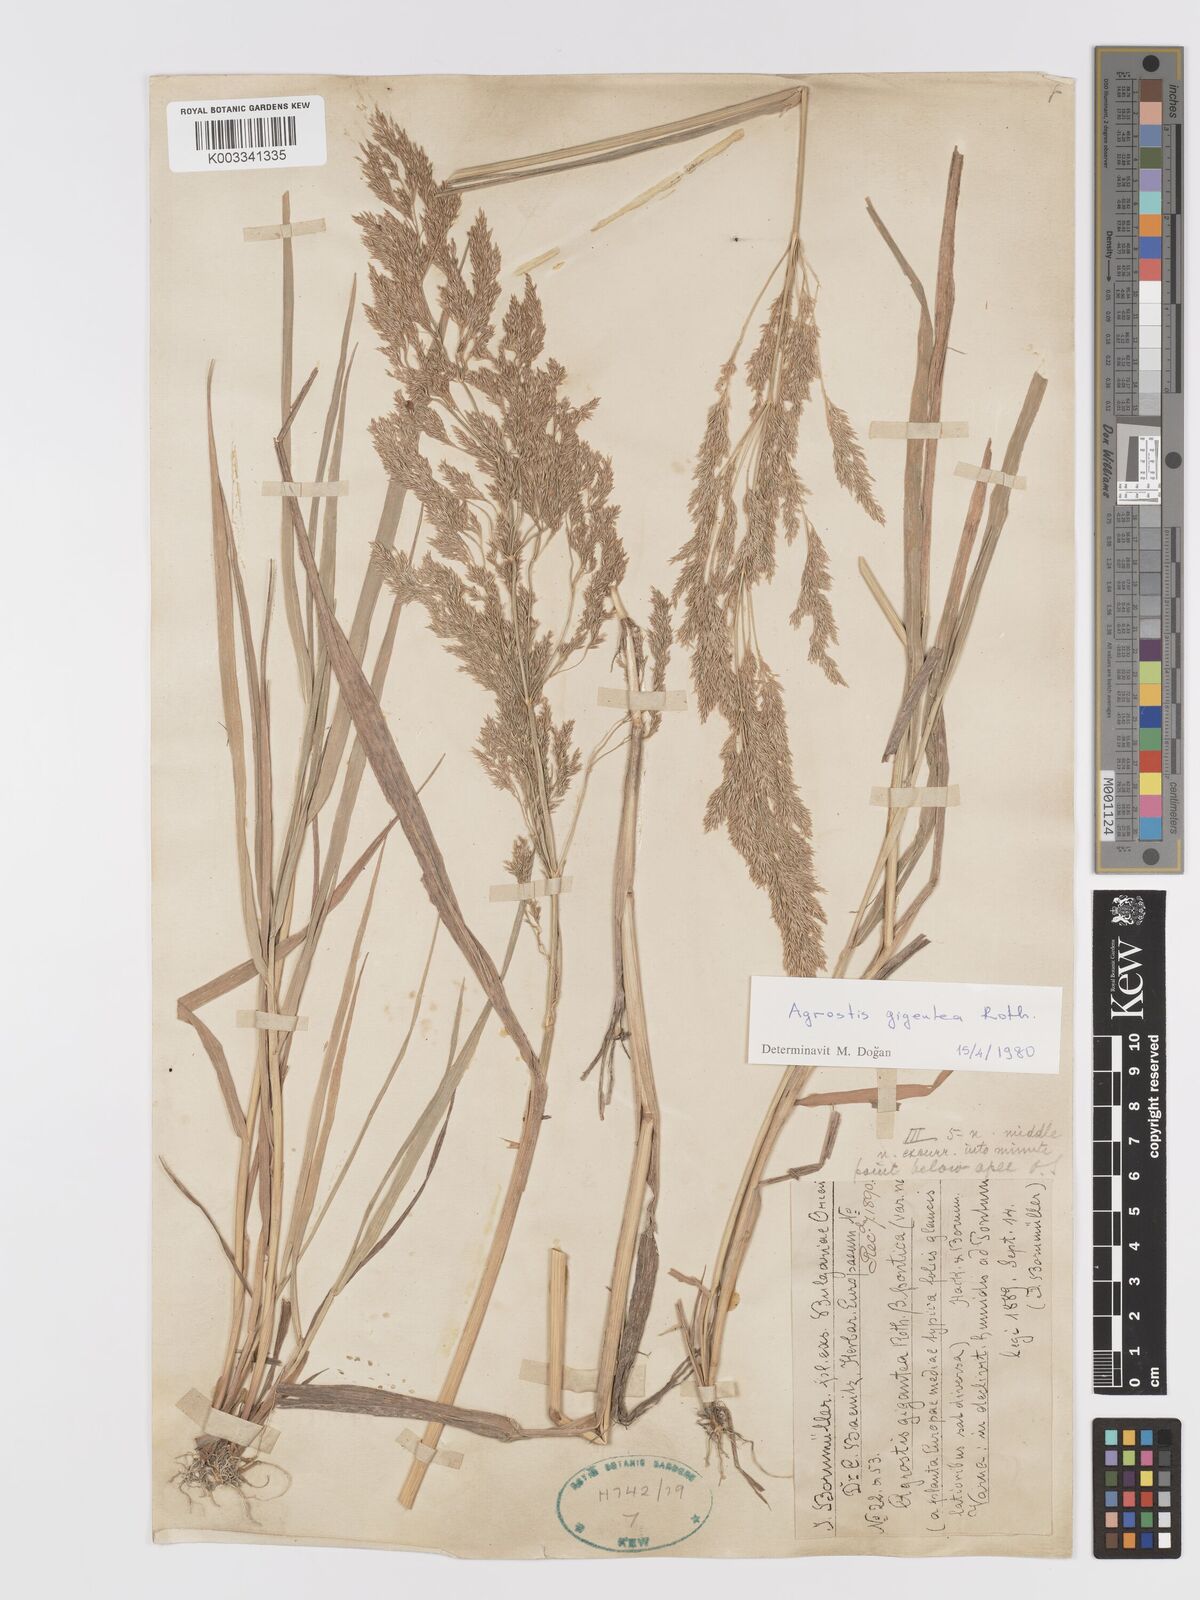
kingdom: Plantae
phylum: Tracheophyta
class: Liliopsida
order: Poales
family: Poaceae
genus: Agrostis
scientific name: Agrostis gigantea
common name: Black bent
